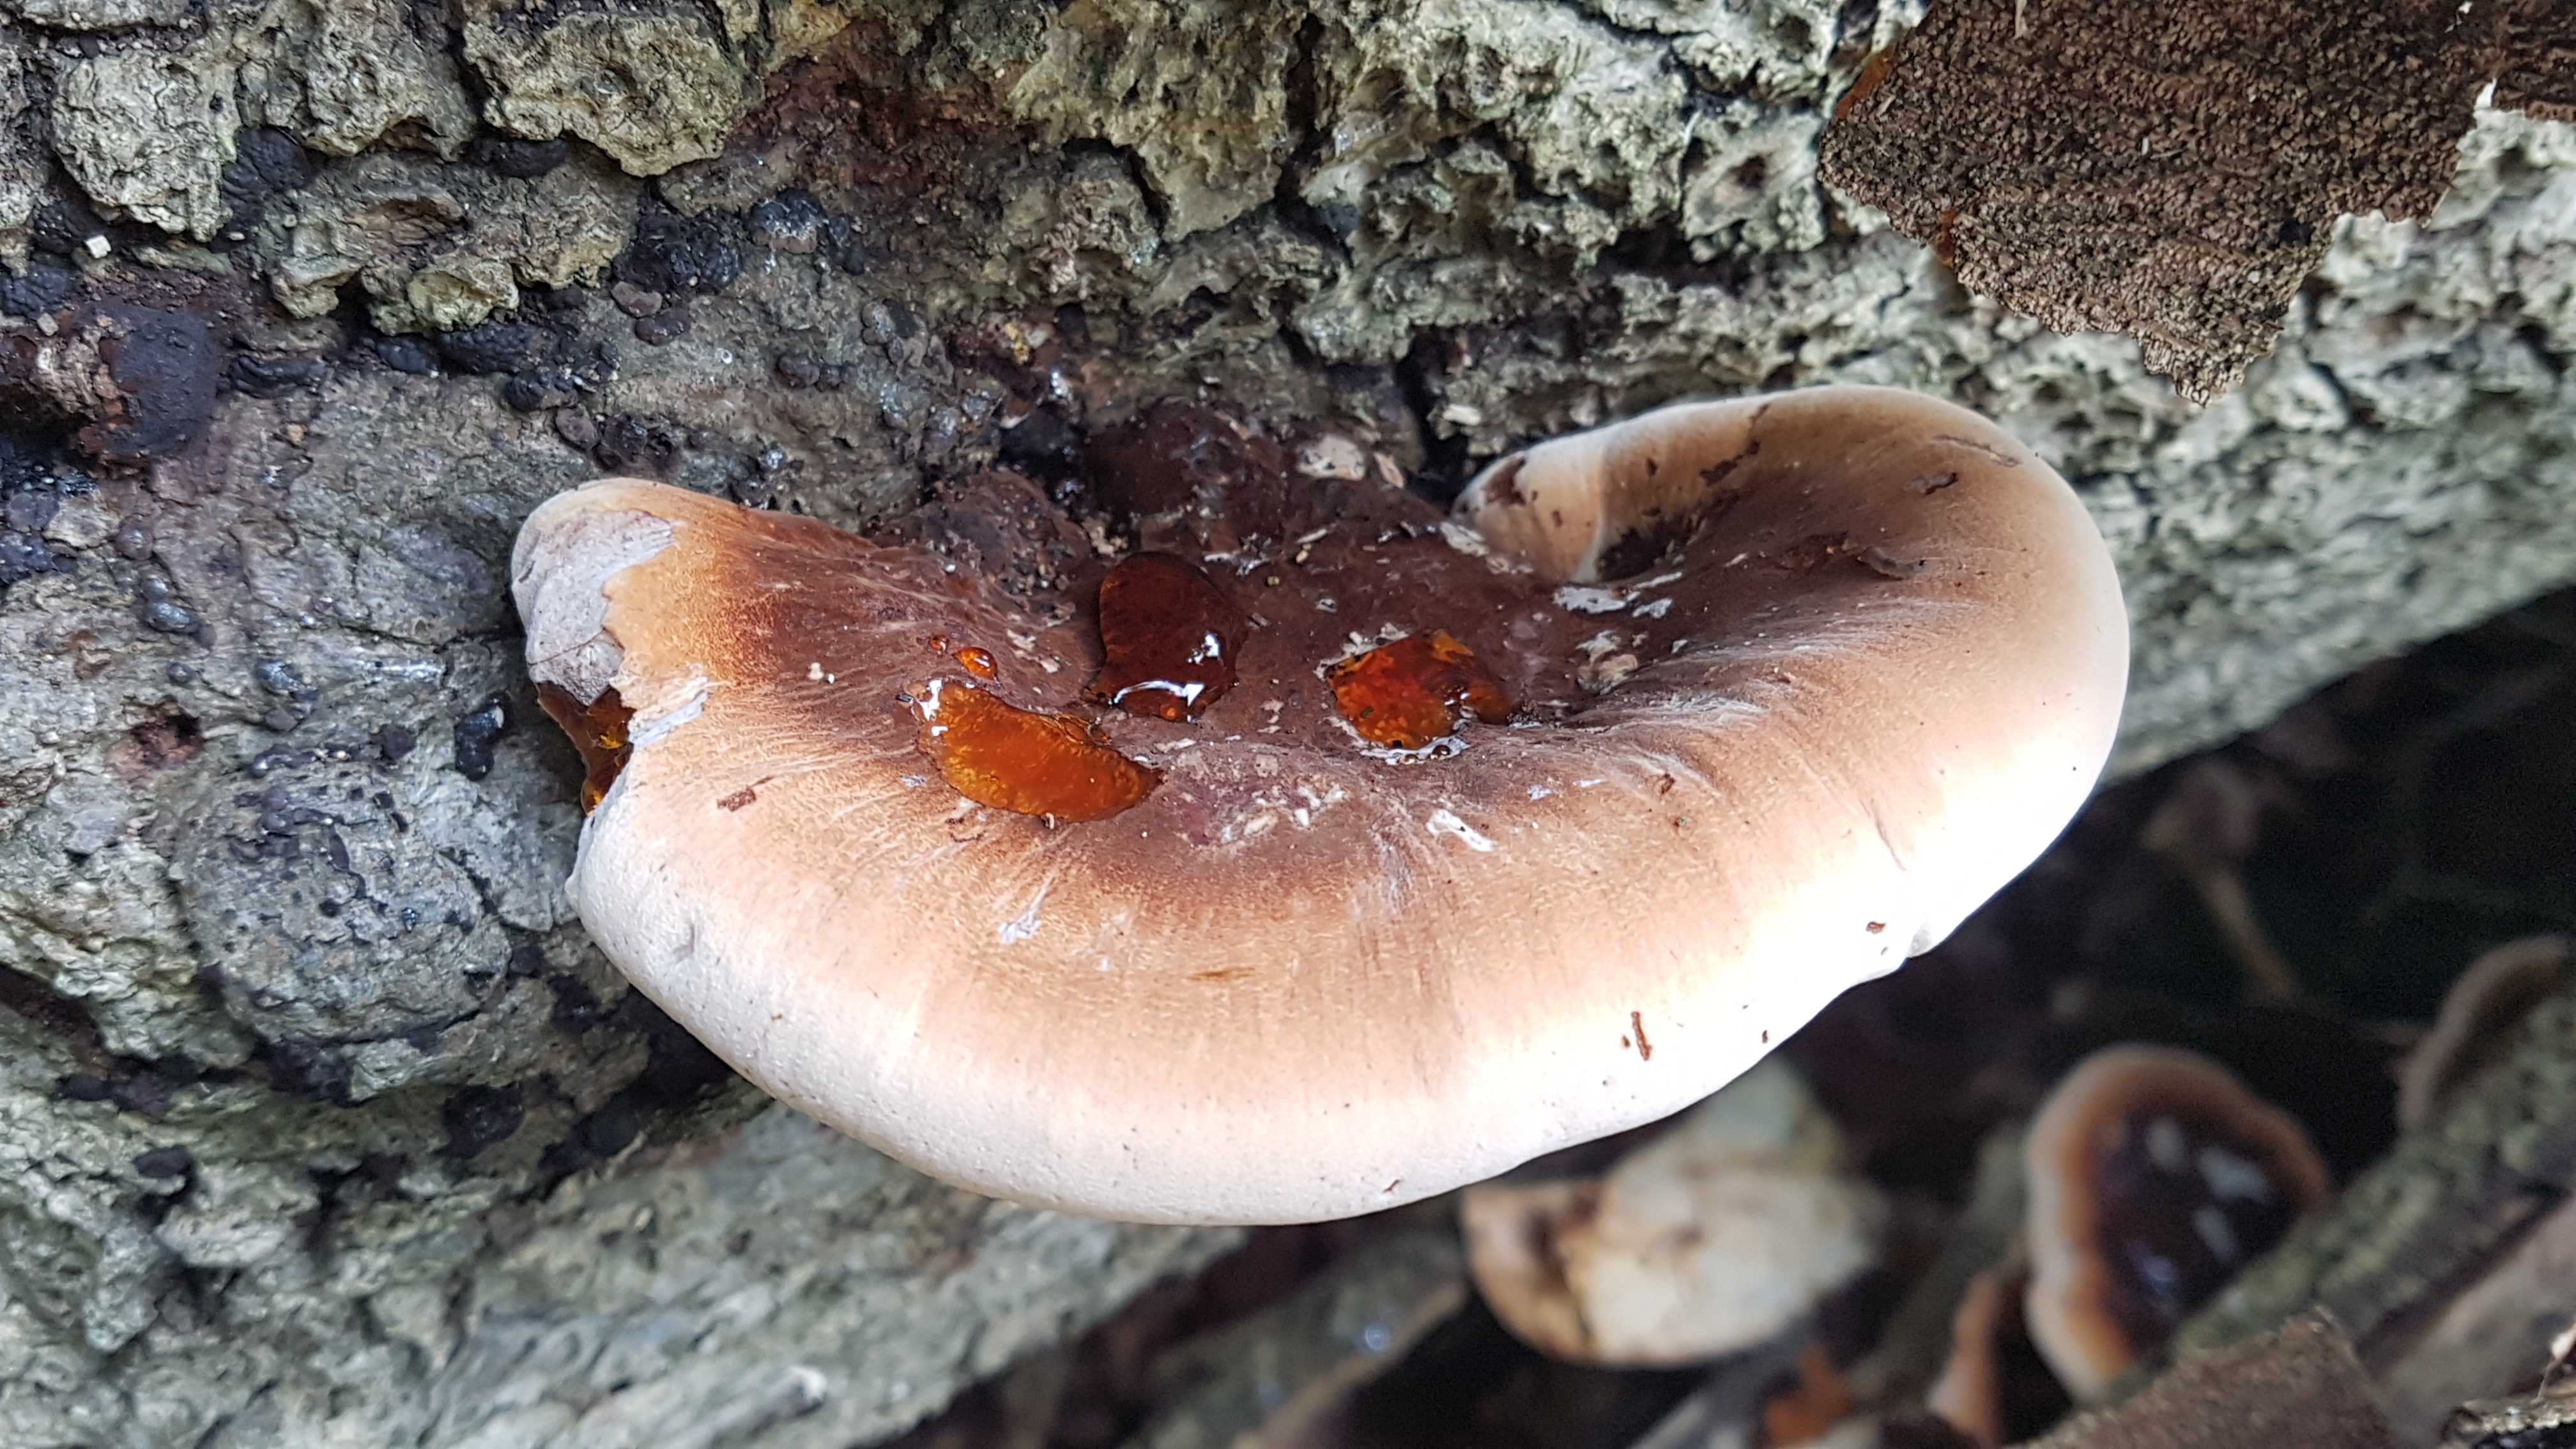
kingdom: Fungi
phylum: Basidiomycota
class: Agaricomycetes
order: Polyporales
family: Ischnodermataceae
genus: Ischnoderma
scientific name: Ischnoderma resinosum
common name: løv-tjæreporesvamp
